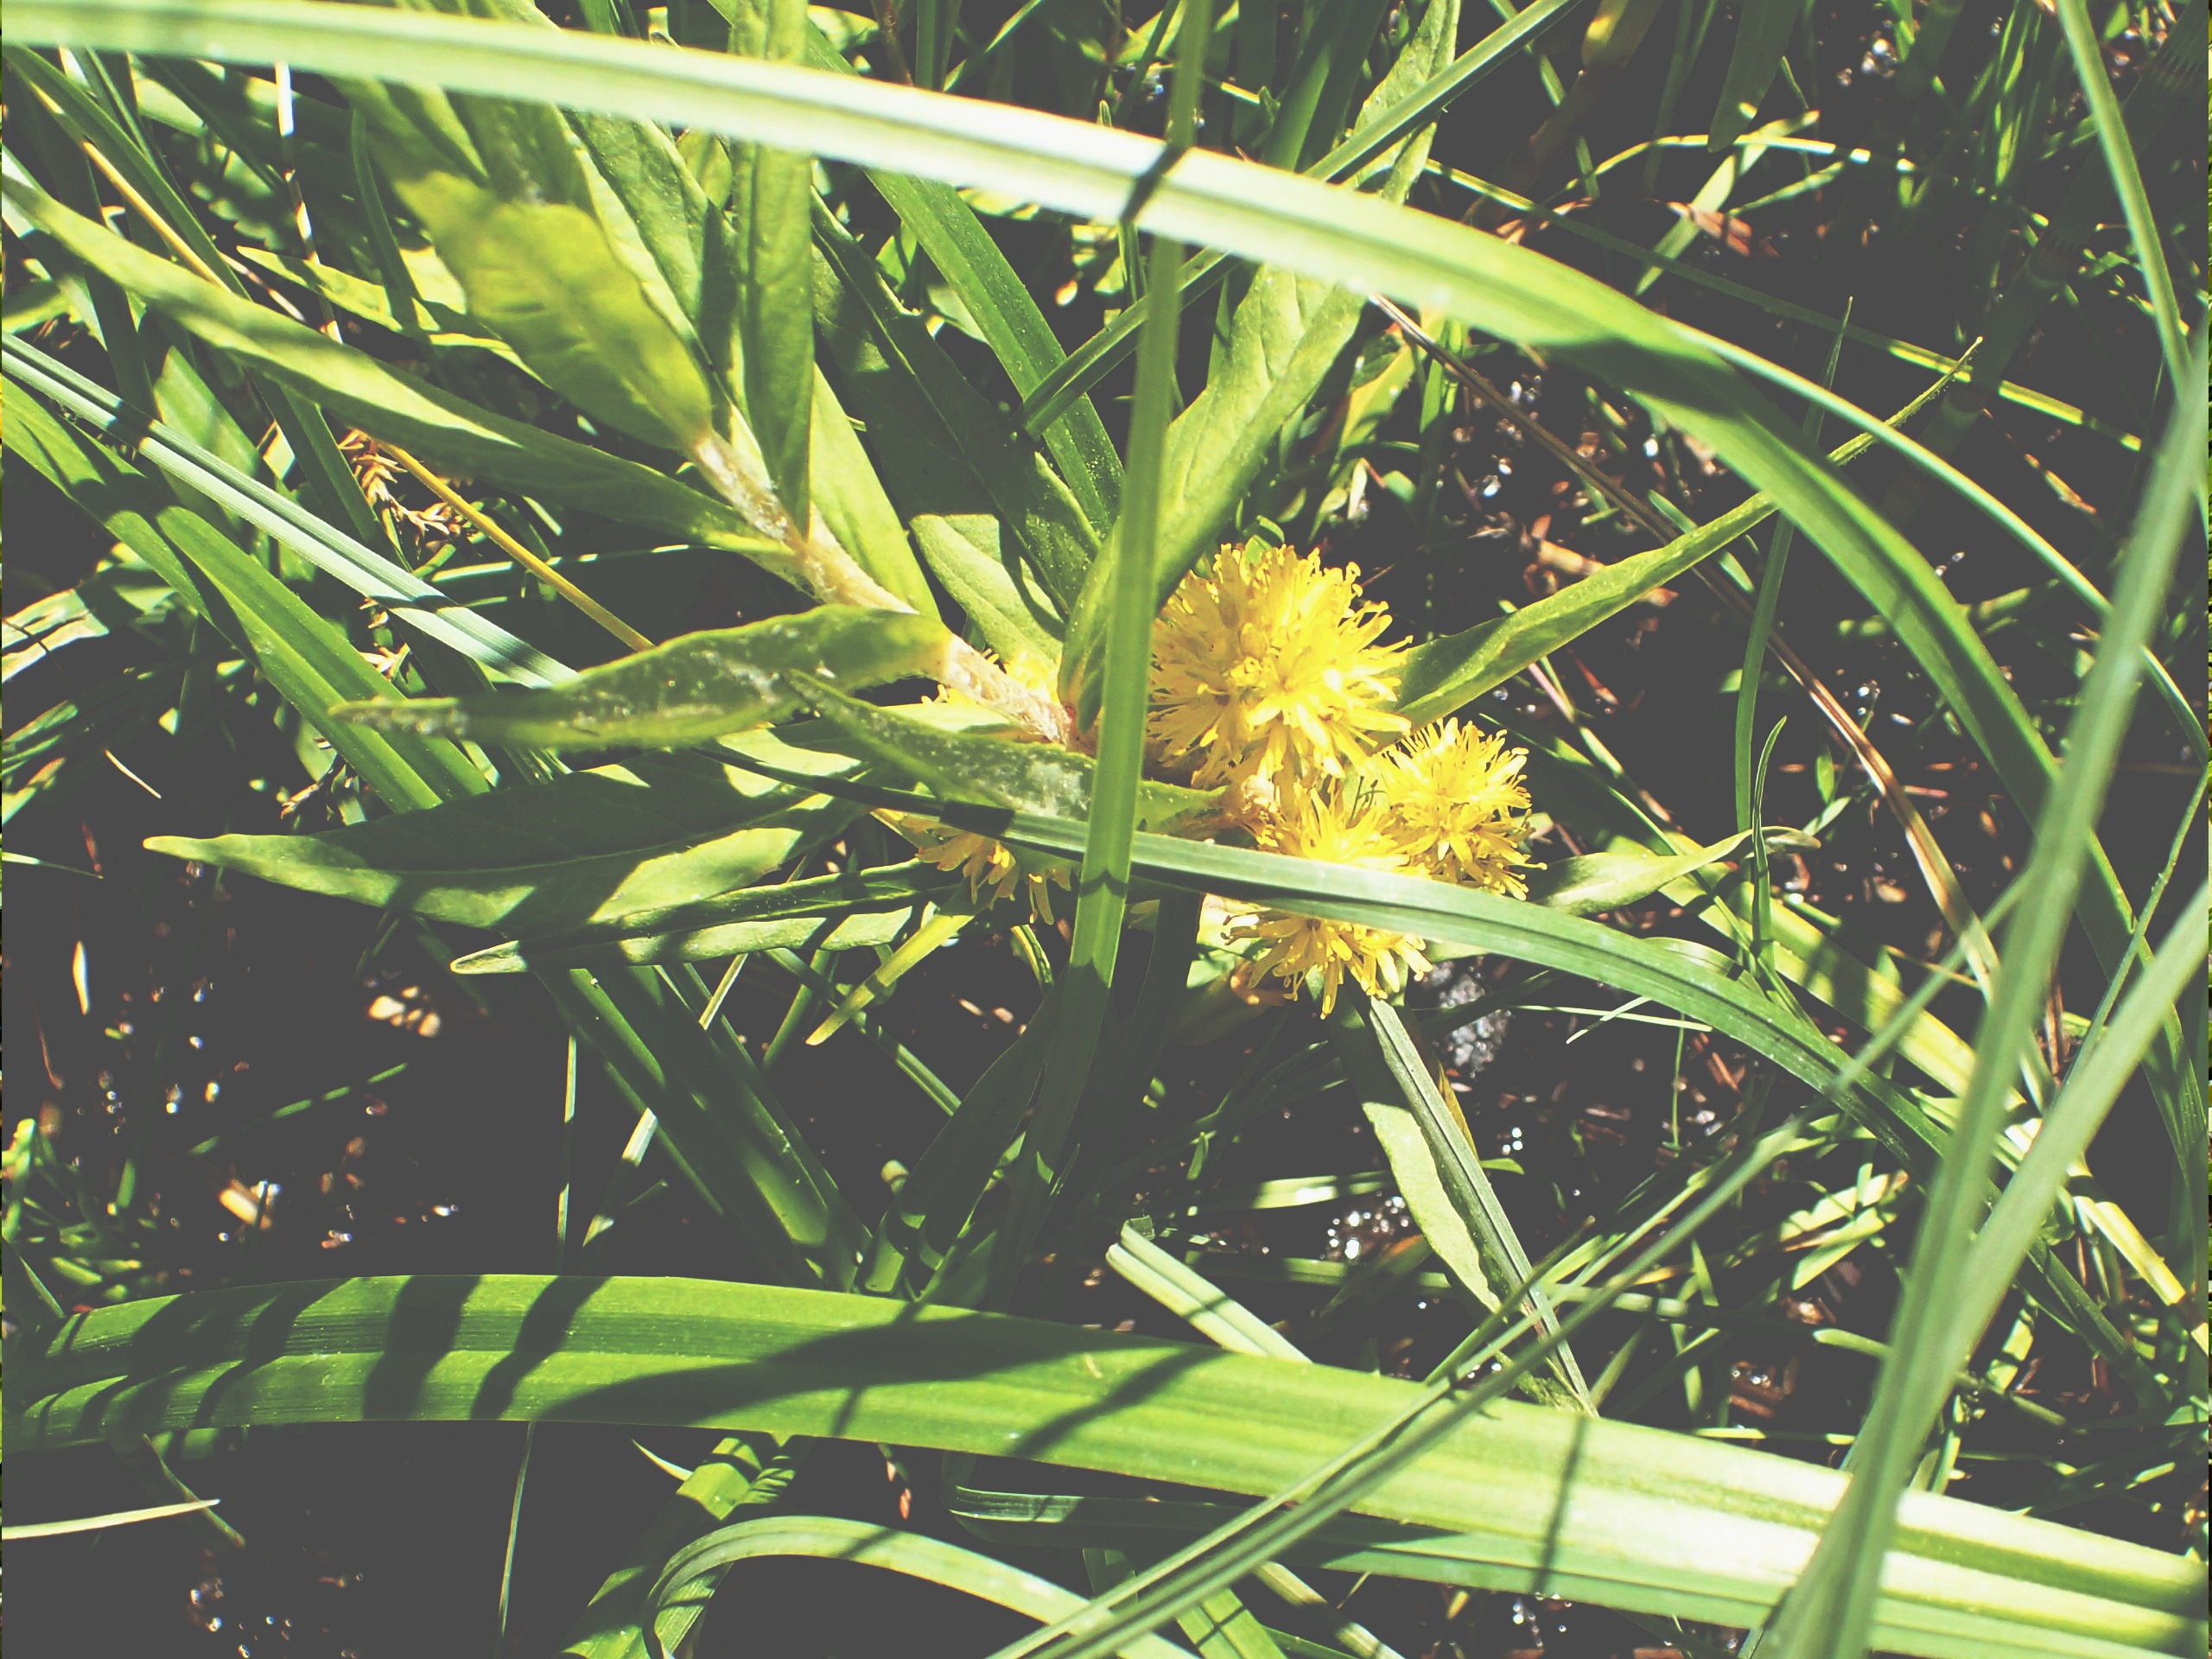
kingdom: Plantae
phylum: Tracheophyta
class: Magnoliopsida
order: Ericales
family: Primulaceae
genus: Lysimachia
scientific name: Lysimachia thyrsiflora
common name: Dusk-fredløs
